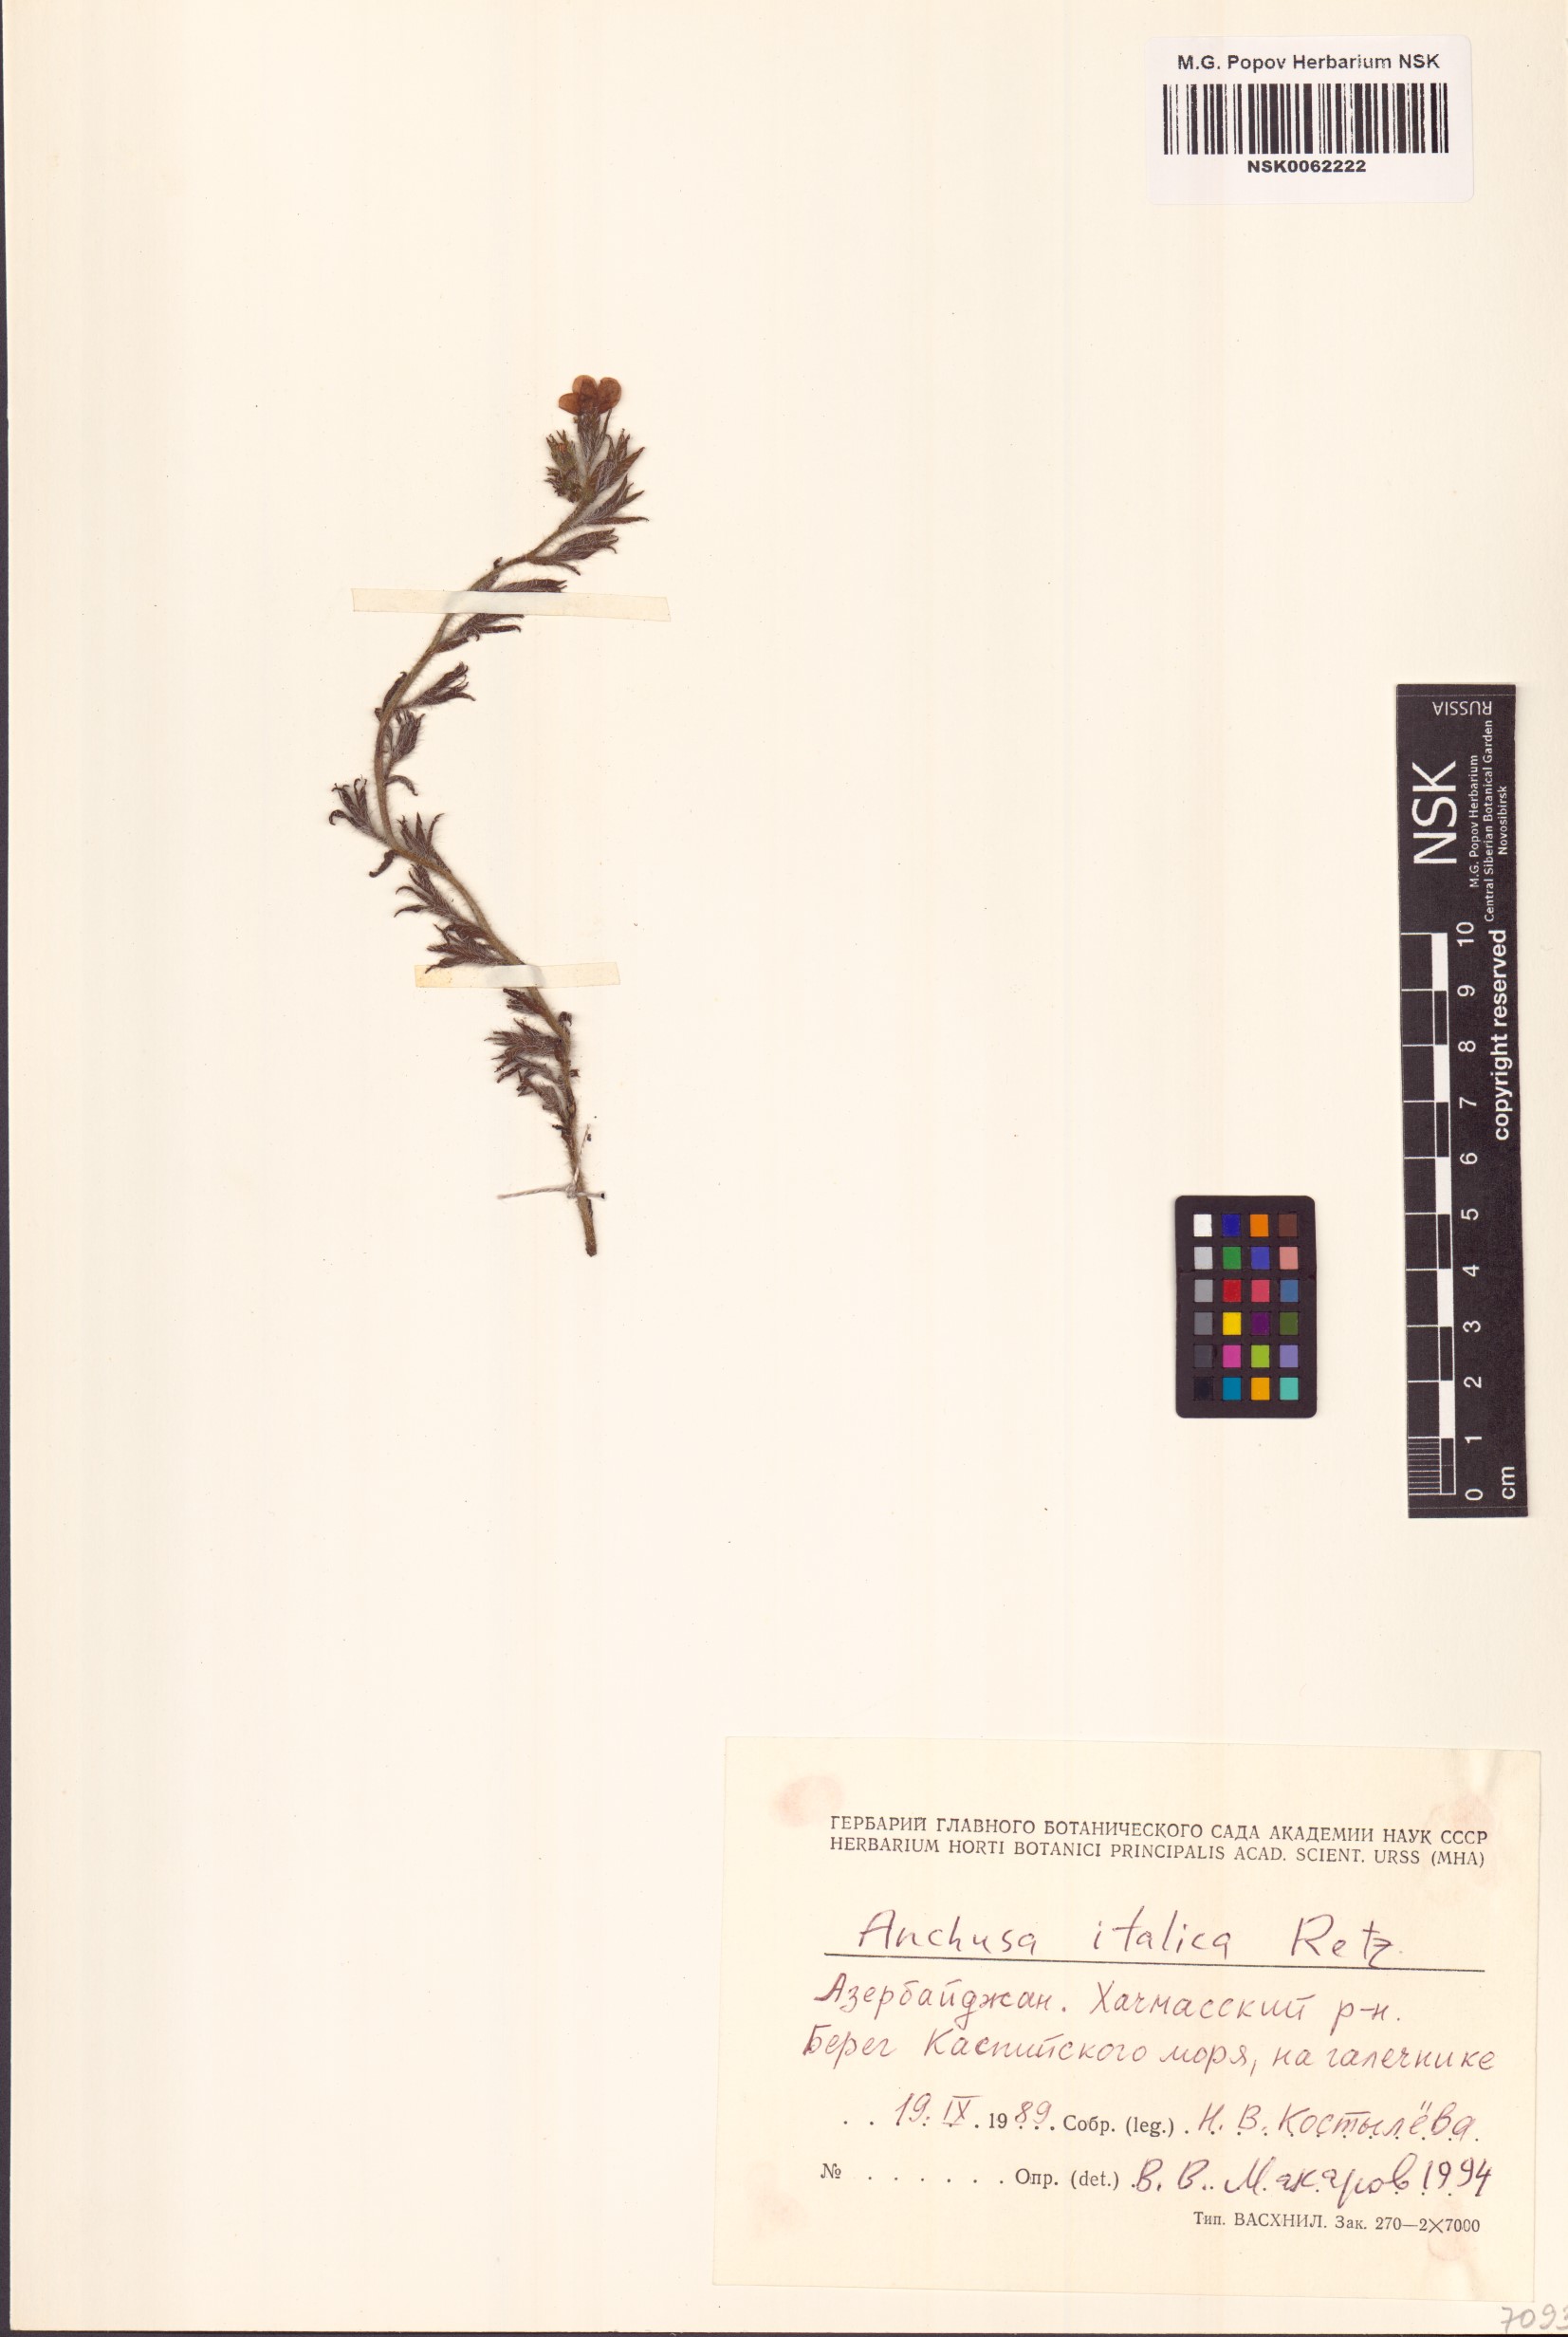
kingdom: Plantae
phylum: Tracheophyta
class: Magnoliopsida
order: Boraginales
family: Boraginaceae
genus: Anchusa
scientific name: Anchusa azurea
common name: Garden anchusa
